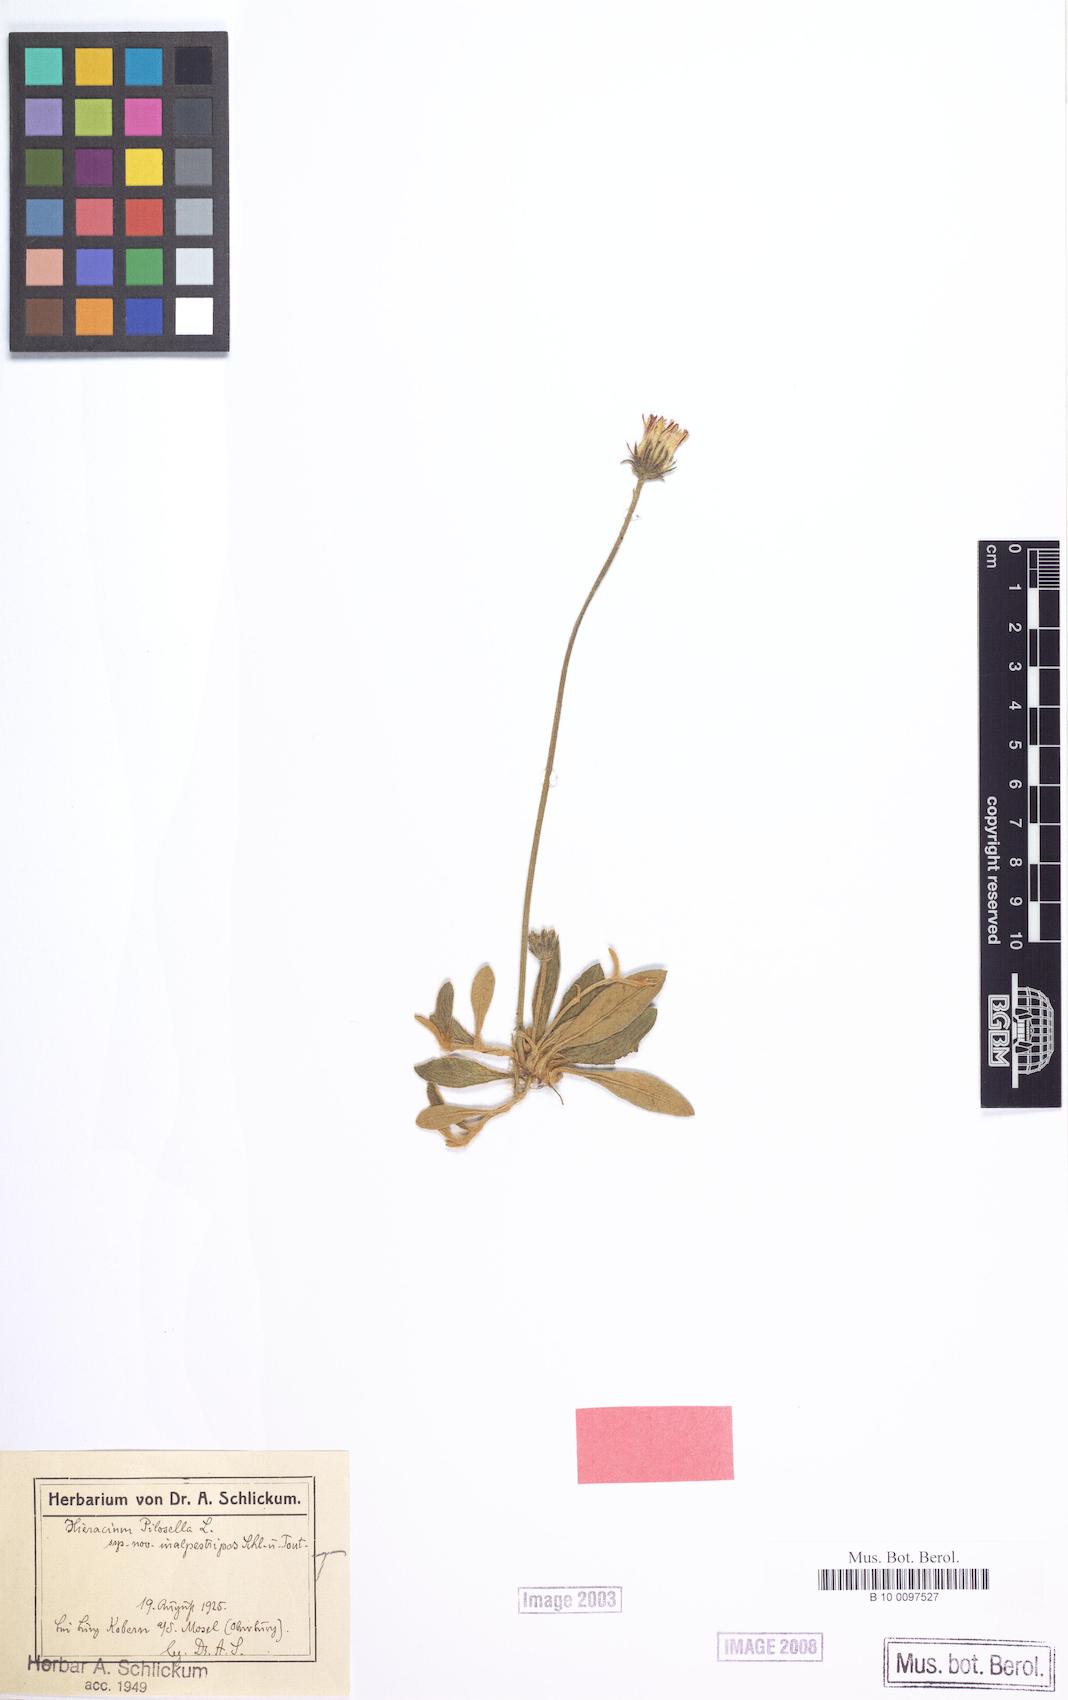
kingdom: Plantae
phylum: Tracheophyta
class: Magnoliopsida
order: Asterales
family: Asteraceae
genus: Pilosella
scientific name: Pilosella officinarum
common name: Mouse-ear hawkweed
